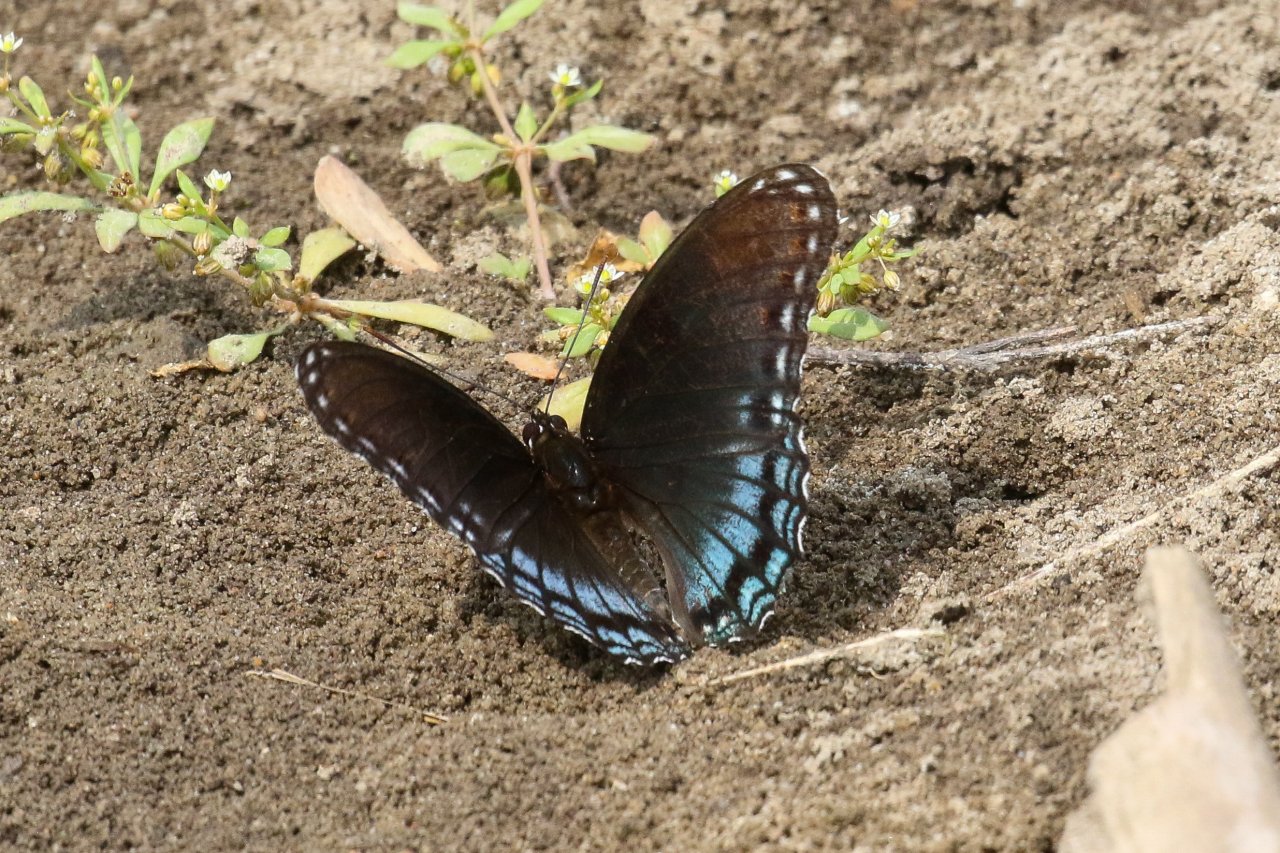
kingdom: Animalia
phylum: Arthropoda
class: Insecta
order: Lepidoptera
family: Nymphalidae
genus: Limenitis
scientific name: Limenitis arthemis
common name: Red-spotted Admiral
